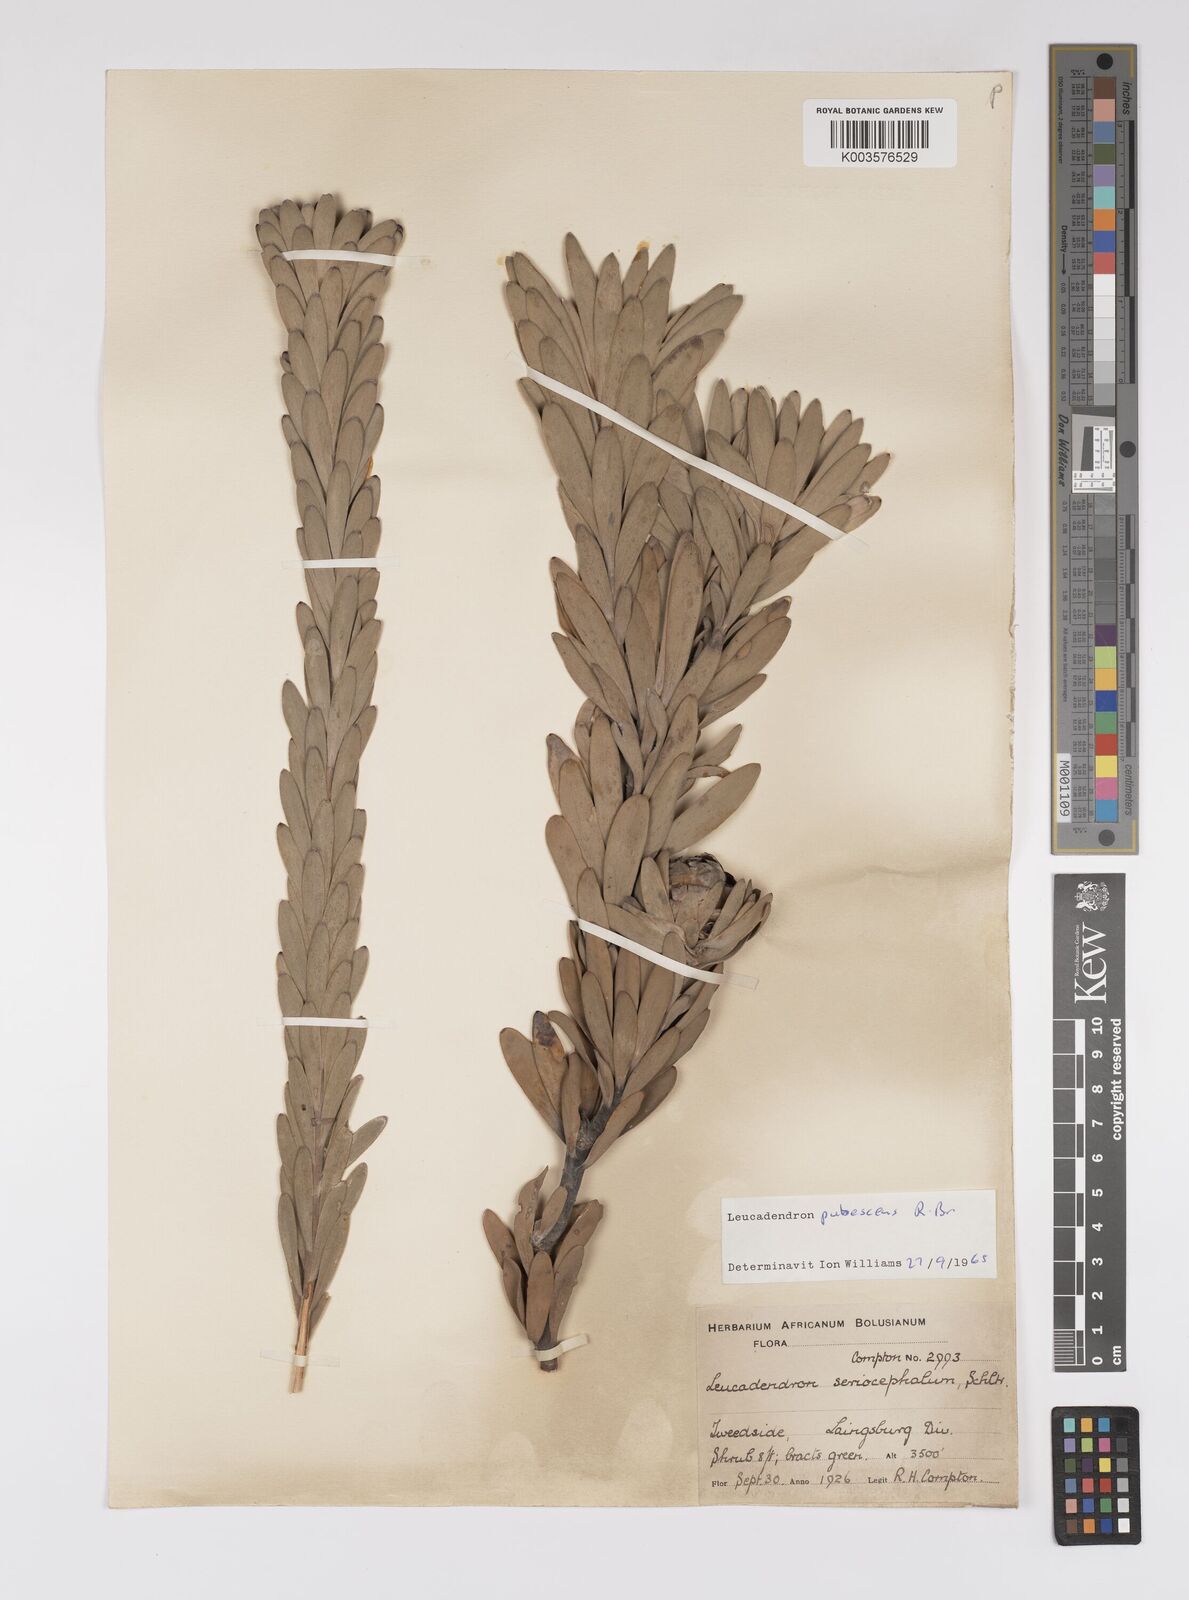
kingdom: Plantae
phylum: Tracheophyta
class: Magnoliopsida
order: Proteales
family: Proteaceae
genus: Leucadendron
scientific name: Leucadendron pubescens
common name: Grey conebush
